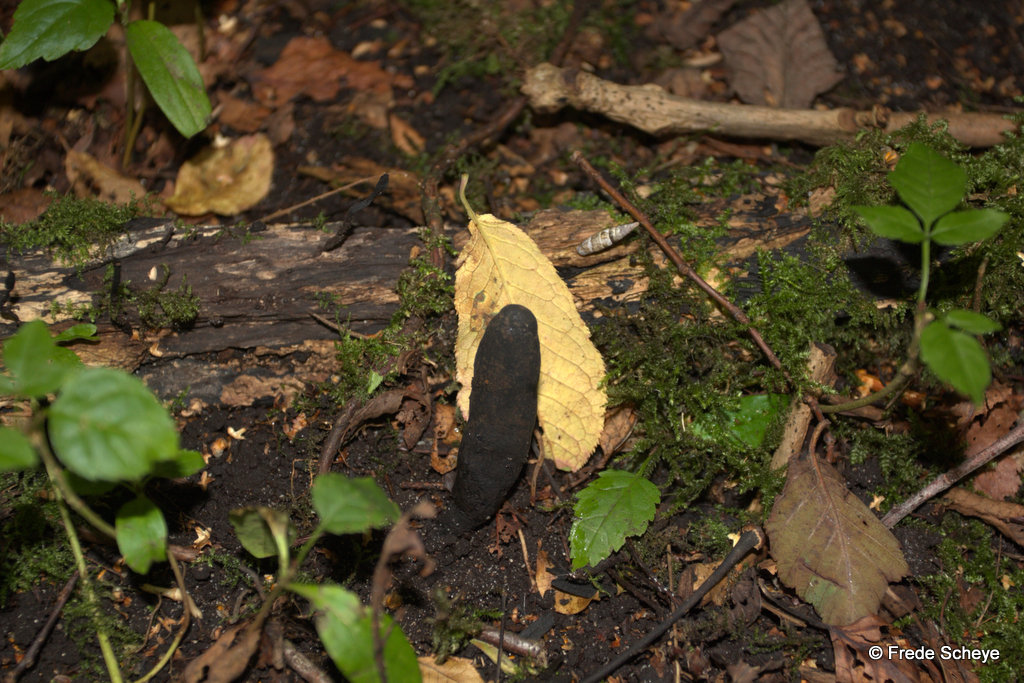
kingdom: Fungi
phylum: Ascomycota
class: Sordariomycetes
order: Xylariales
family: Xylariaceae
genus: Xylaria
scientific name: Xylaria longipes
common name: slank stødsvamp
